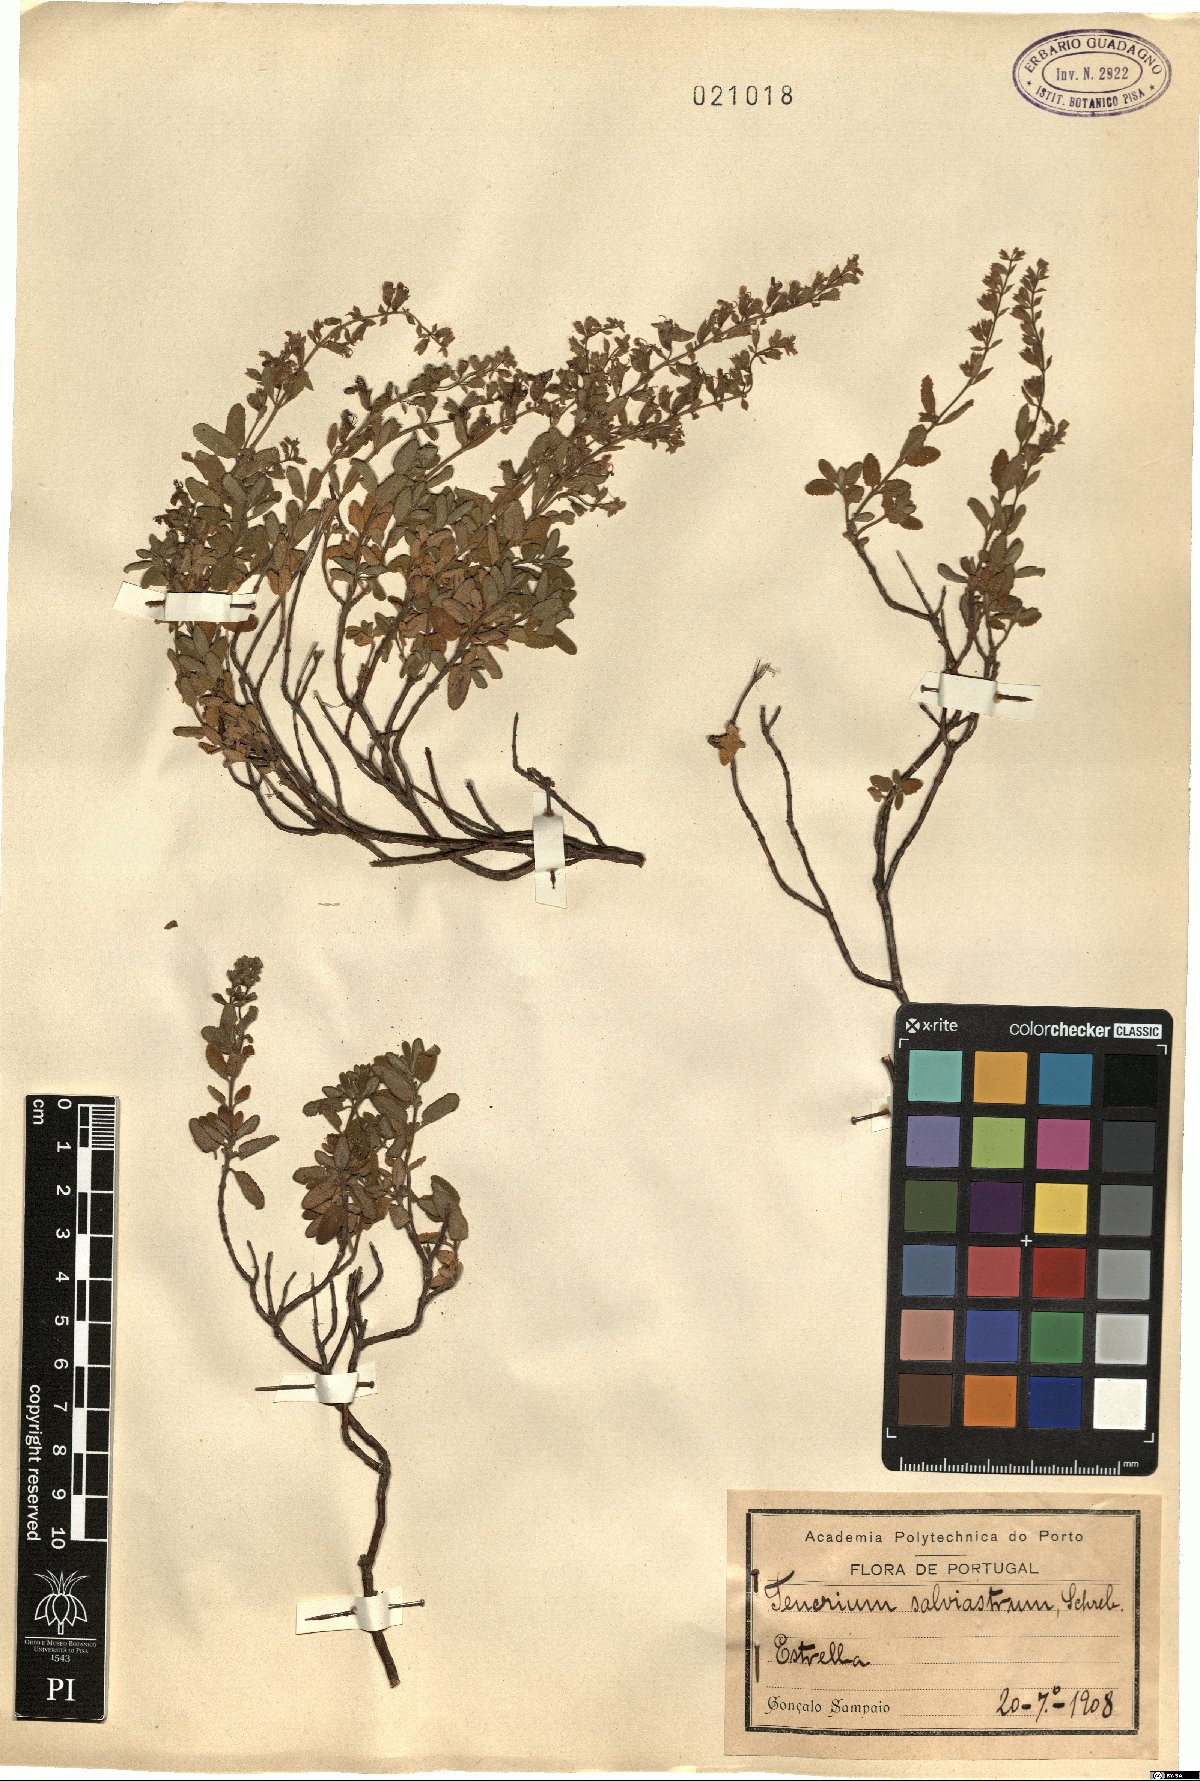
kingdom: Plantae
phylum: Tracheophyta
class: Magnoliopsida
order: Lamiales
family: Lamiaceae
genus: Teucrium
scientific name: Teucrium salviastrum
